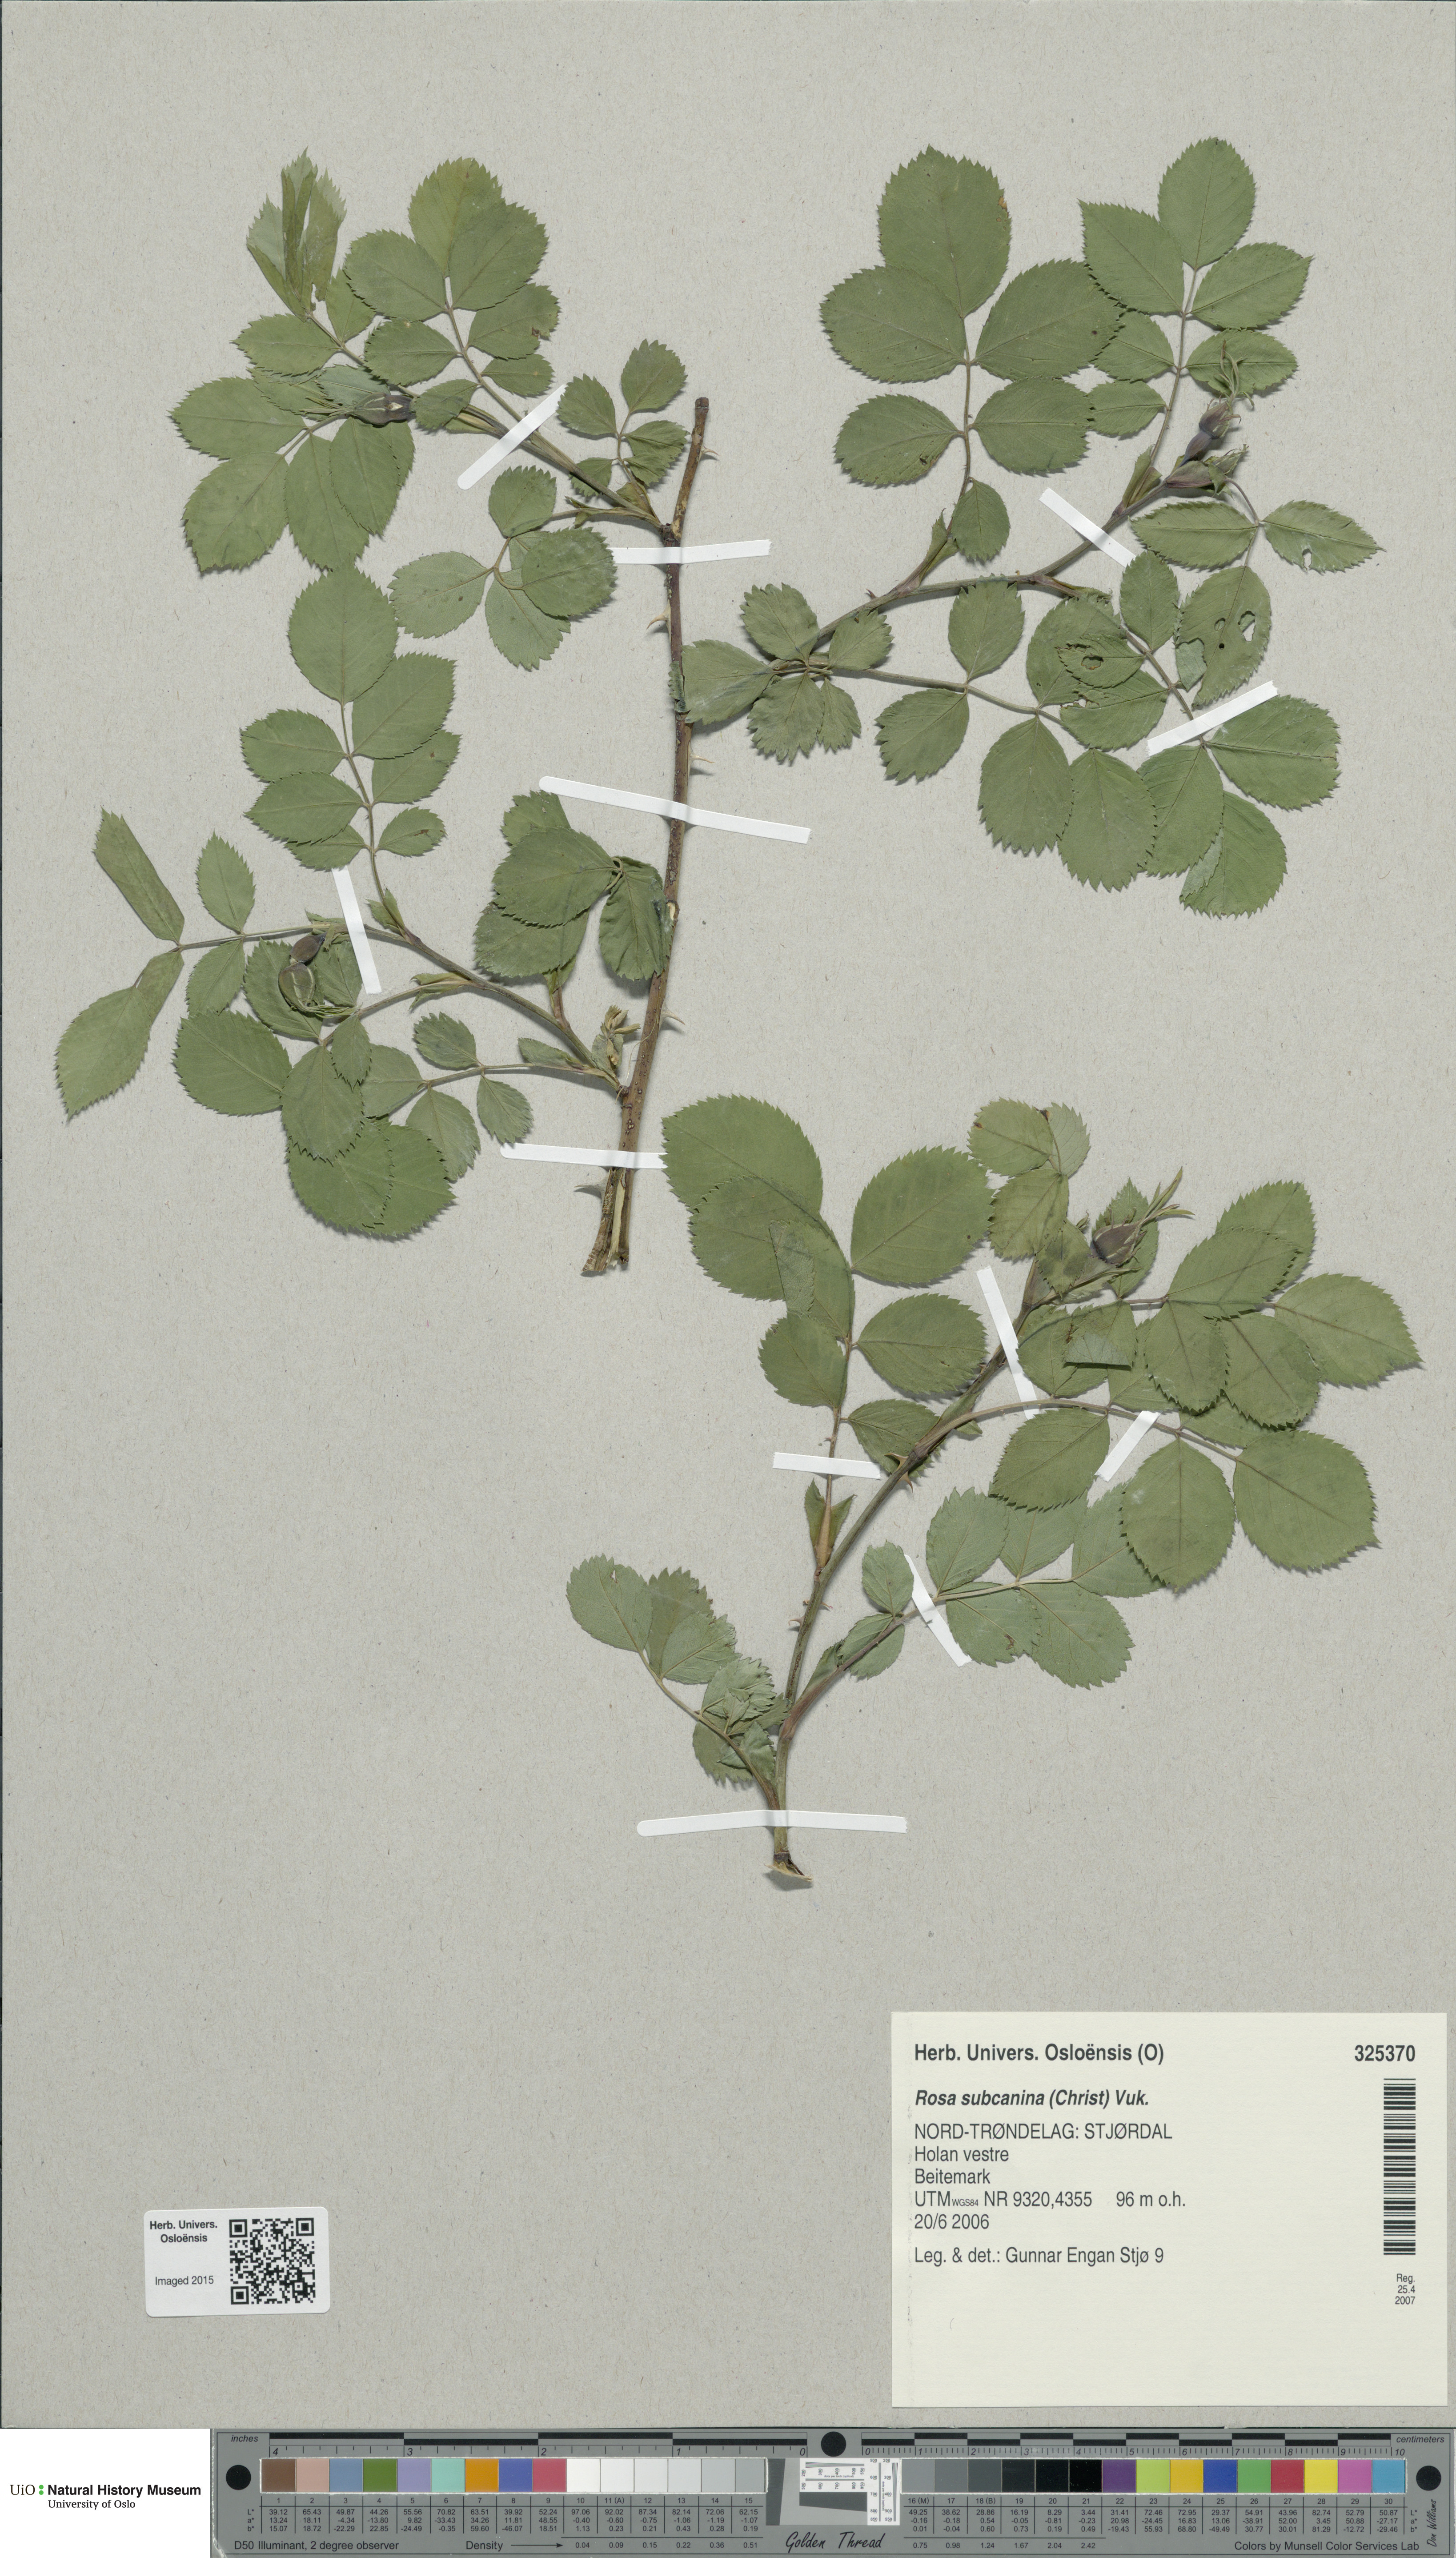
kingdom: Plantae
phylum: Tracheophyta
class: Magnoliopsida
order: Rosales
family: Rosaceae
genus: Rosa
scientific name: Rosa subcanina
